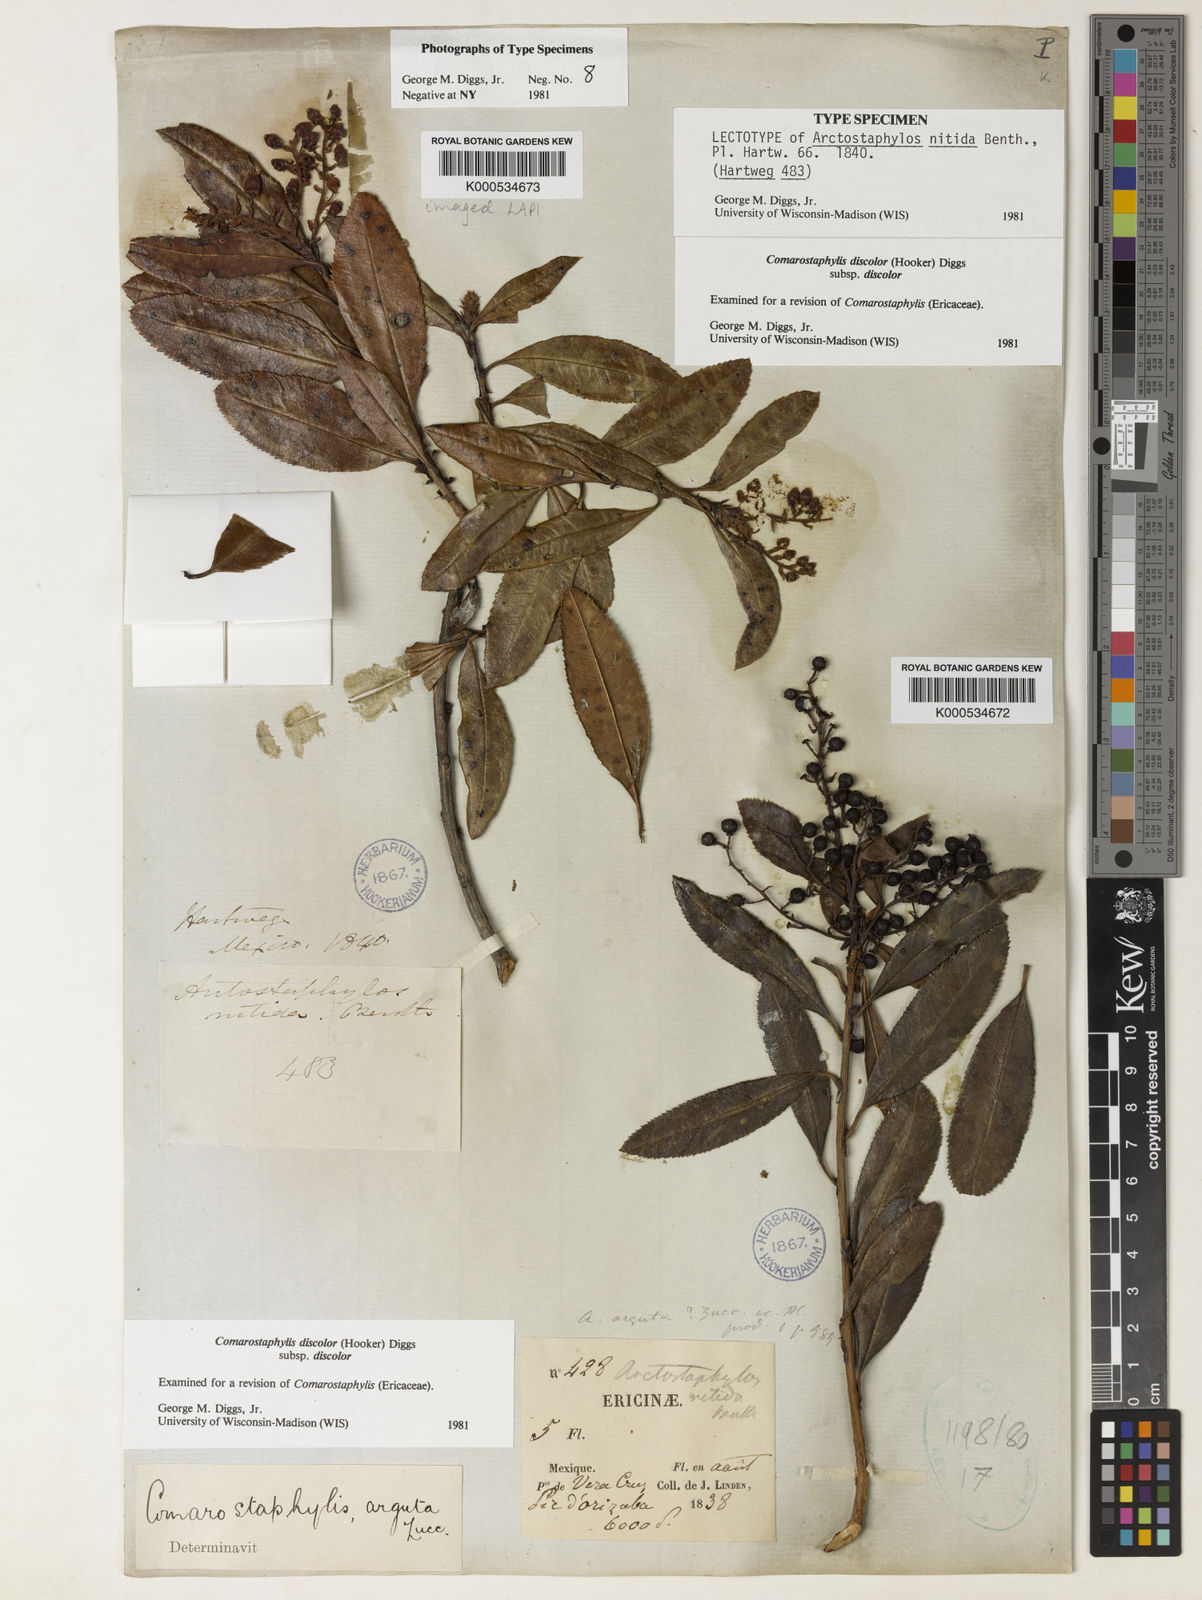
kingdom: Plantae
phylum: Tracheophyta
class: Magnoliopsida
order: Ericales
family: Ericaceae
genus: Comarostaphylis
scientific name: Comarostaphylis discolor
